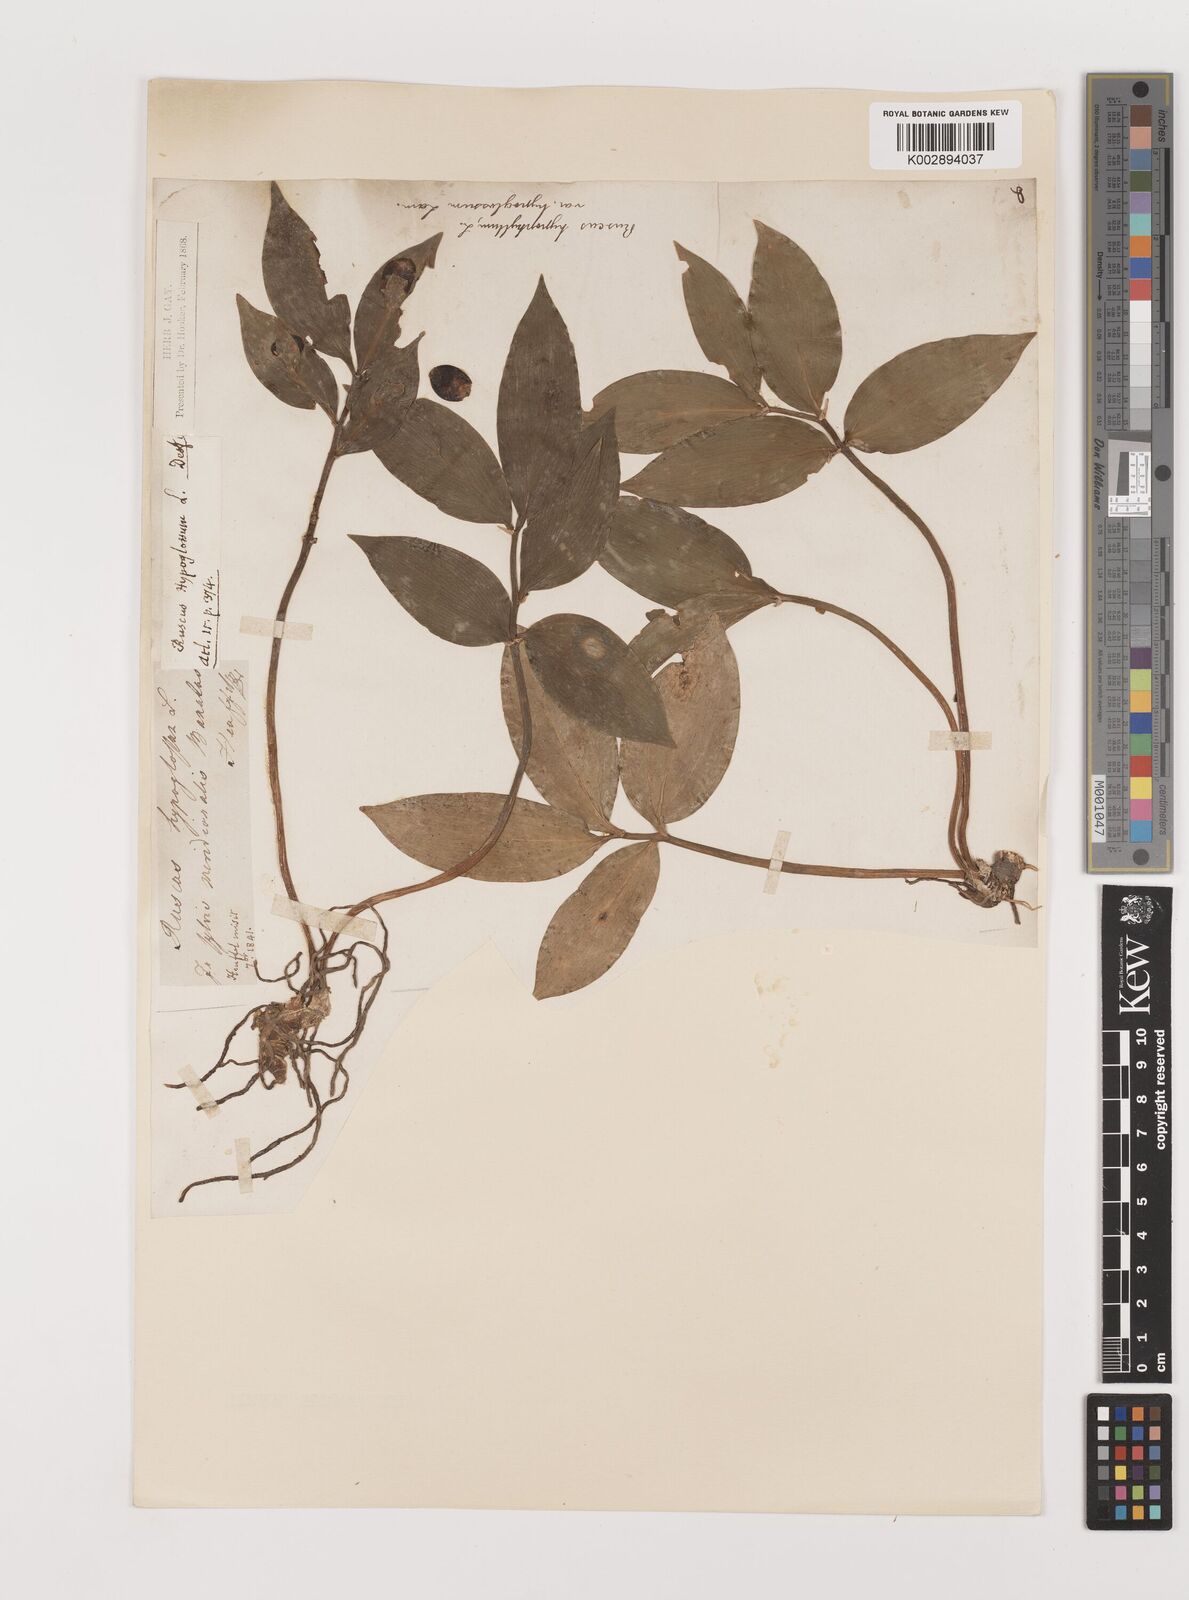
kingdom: Plantae
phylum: Tracheophyta
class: Liliopsida
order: Asparagales
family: Asparagaceae
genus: Ruscus
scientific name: Ruscus hypoglossum
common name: Spineless butcher's-broom
